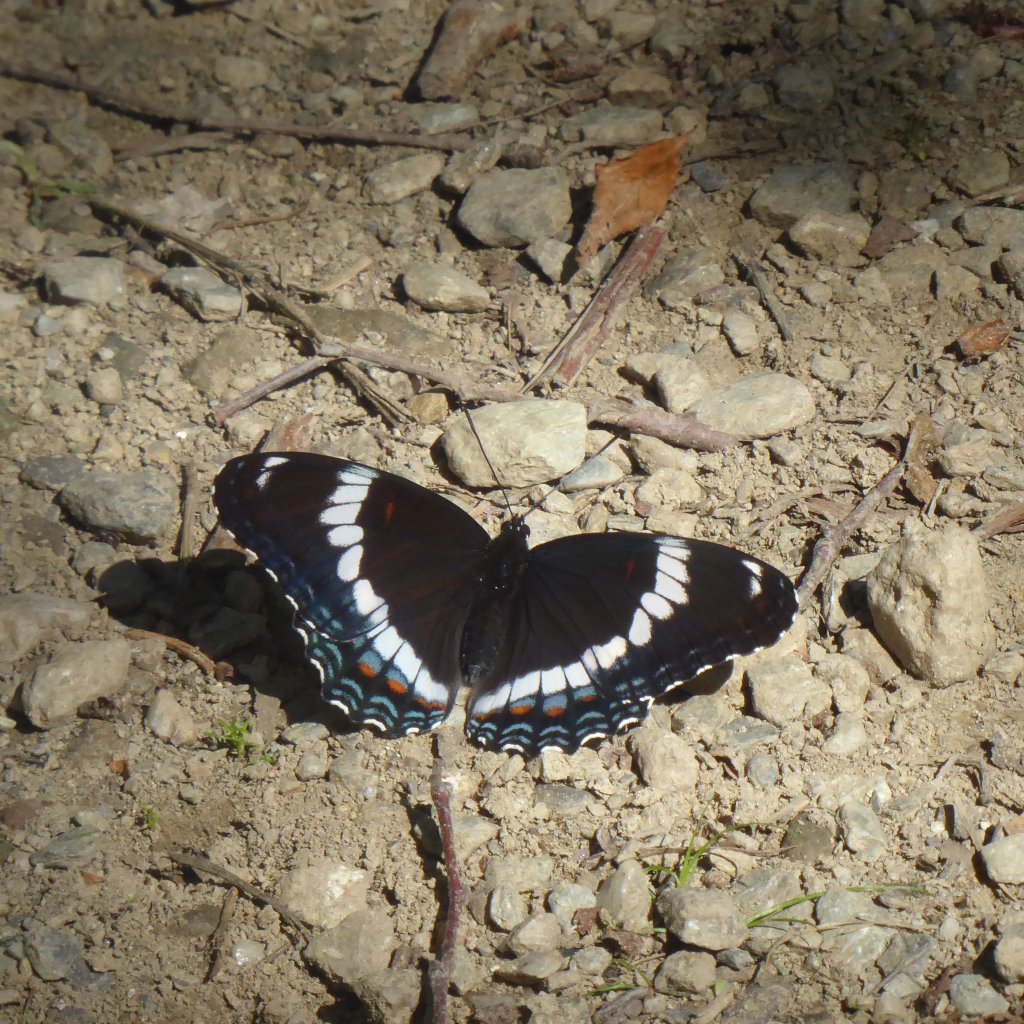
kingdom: Animalia
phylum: Arthropoda
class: Insecta
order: Lepidoptera
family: Nymphalidae
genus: Limenitis
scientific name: Limenitis arthemis
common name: Red-spotted Admiral
